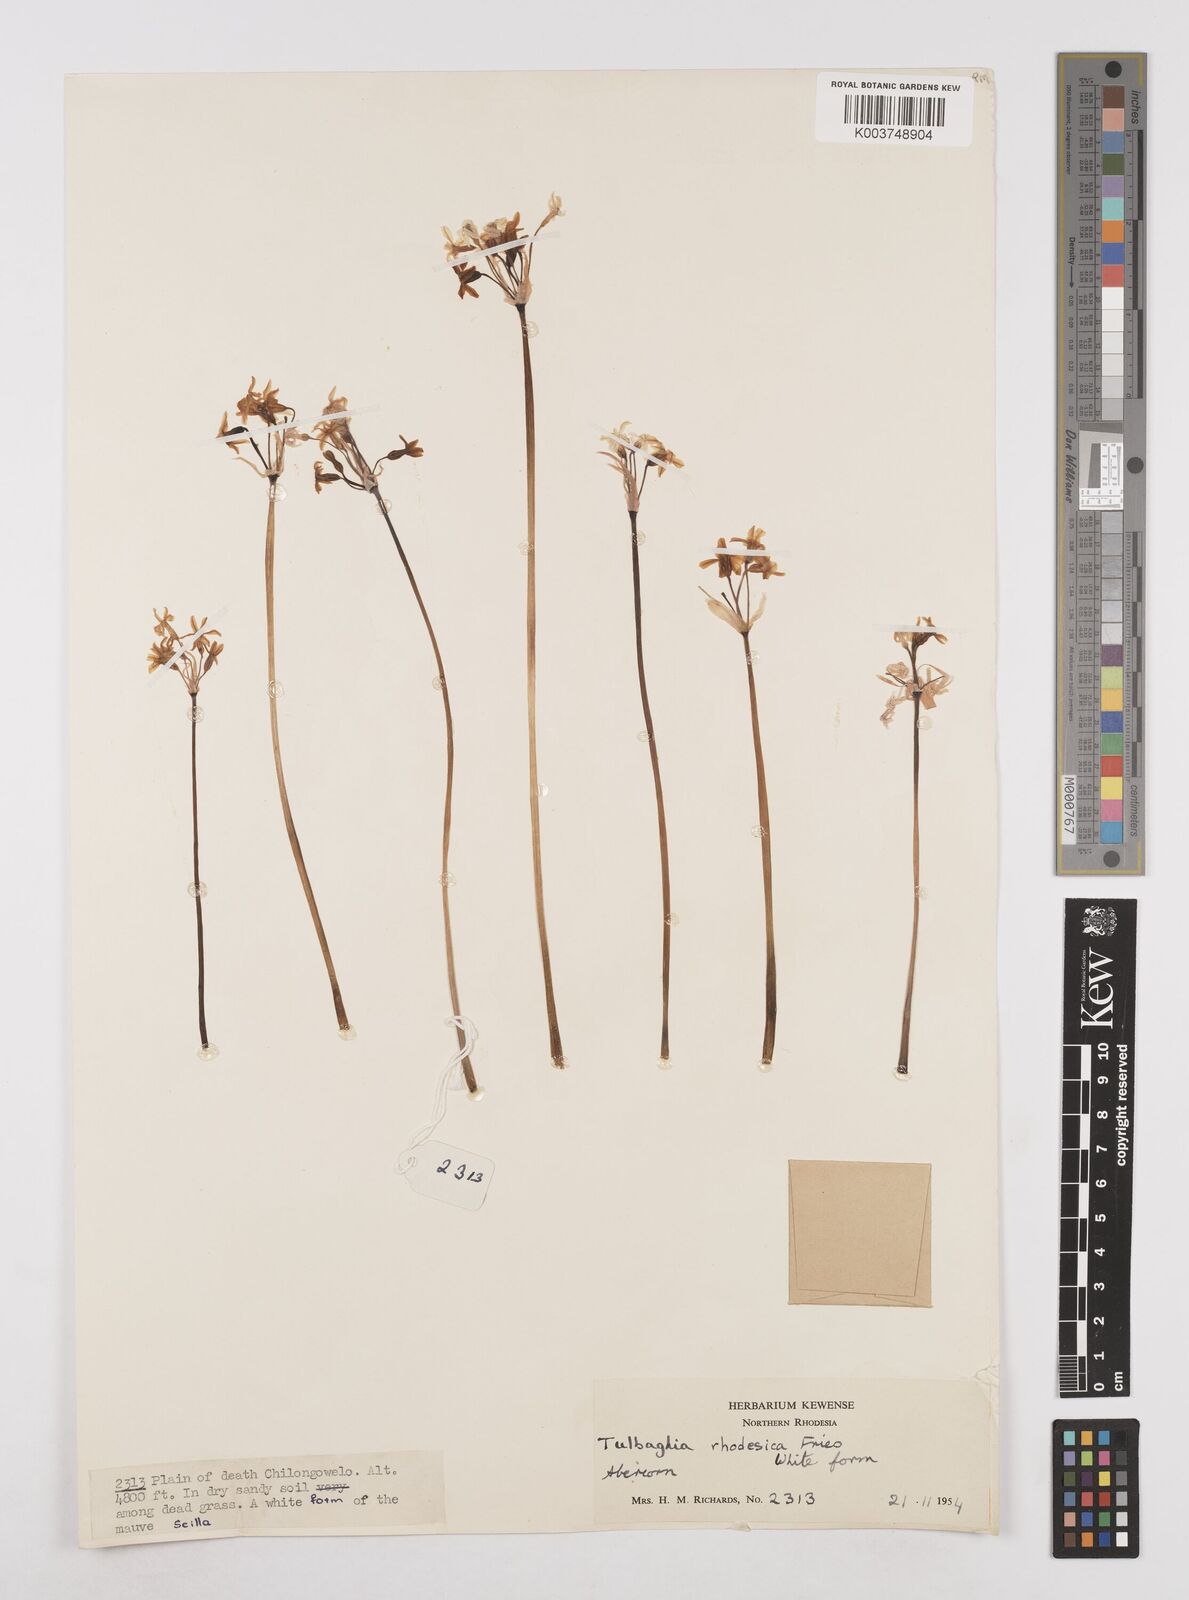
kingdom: Plantae
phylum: Tracheophyta
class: Liliopsida
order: Asparagales
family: Amaryllidaceae
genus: Tulbaghia
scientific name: Tulbaghia rhodesica
